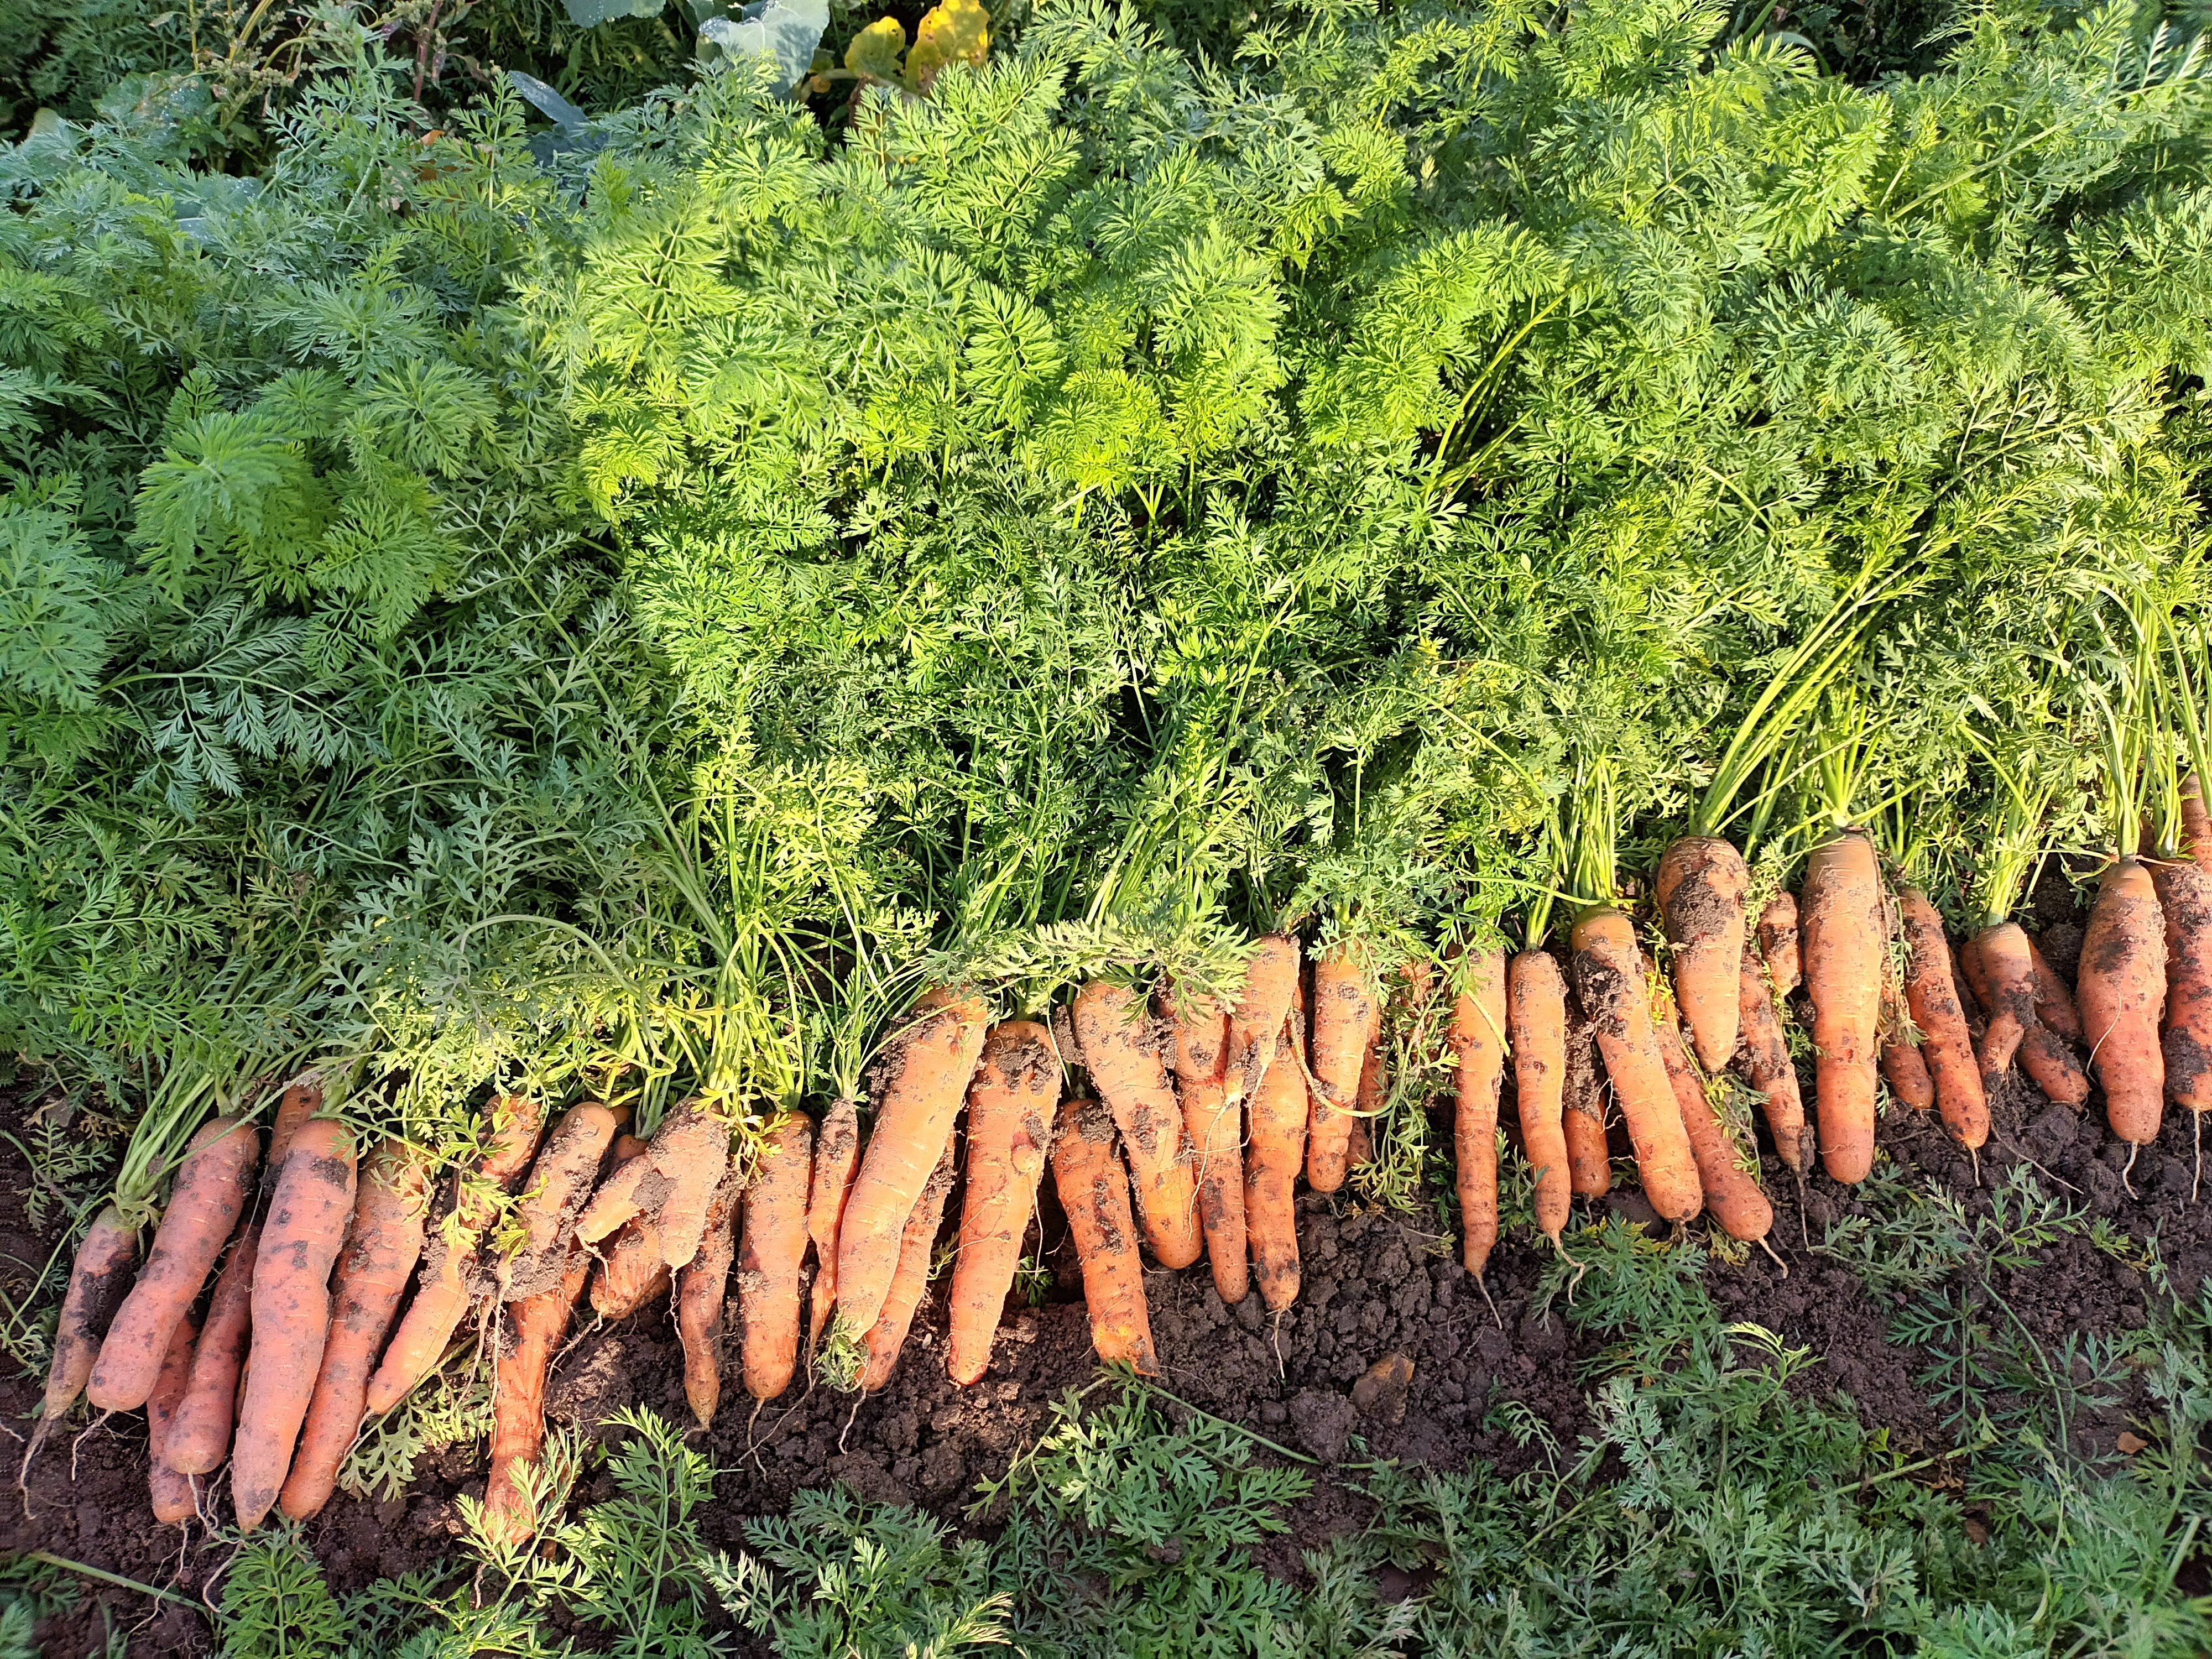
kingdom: Plantae
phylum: Tracheophyta
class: Magnoliopsida
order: Apiales
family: Apiaceae
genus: Daucus
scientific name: Daucus carota
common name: Wild carrot
